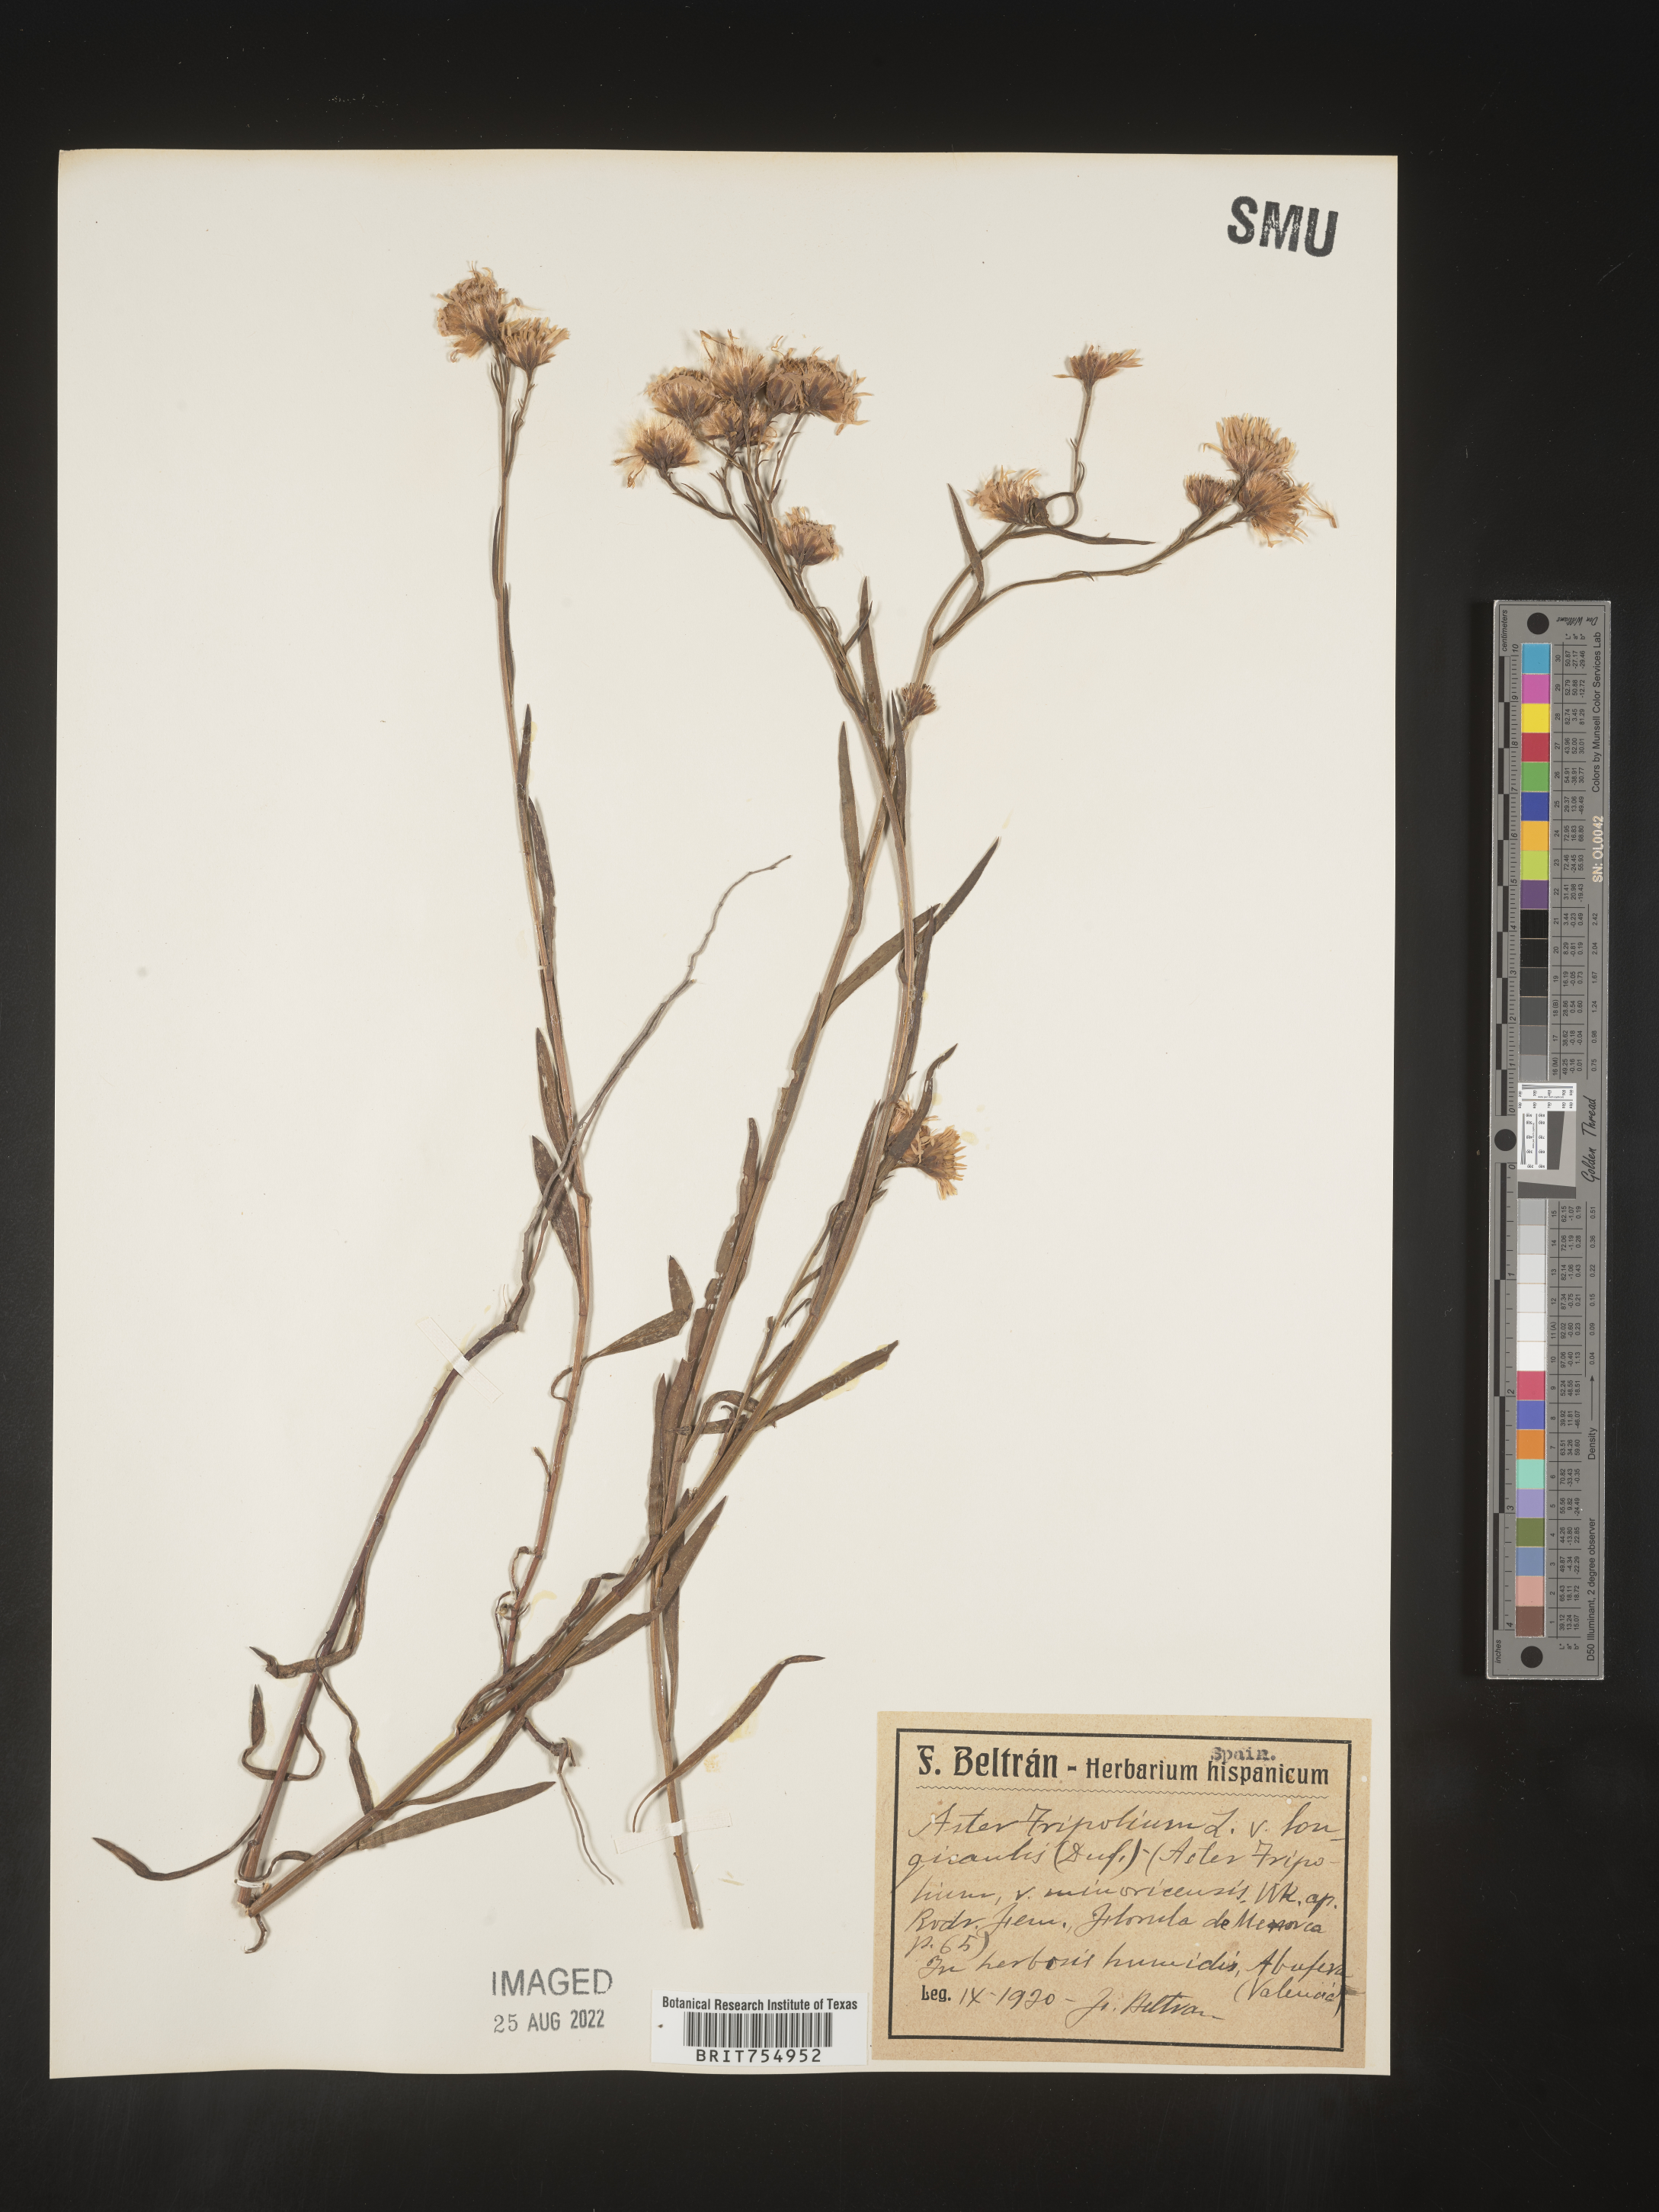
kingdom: Plantae
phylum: Tracheophyta
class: Magnoliopsida
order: Asterales
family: Asteraceae
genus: Symphyotrichum
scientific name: Symphyotrichum
